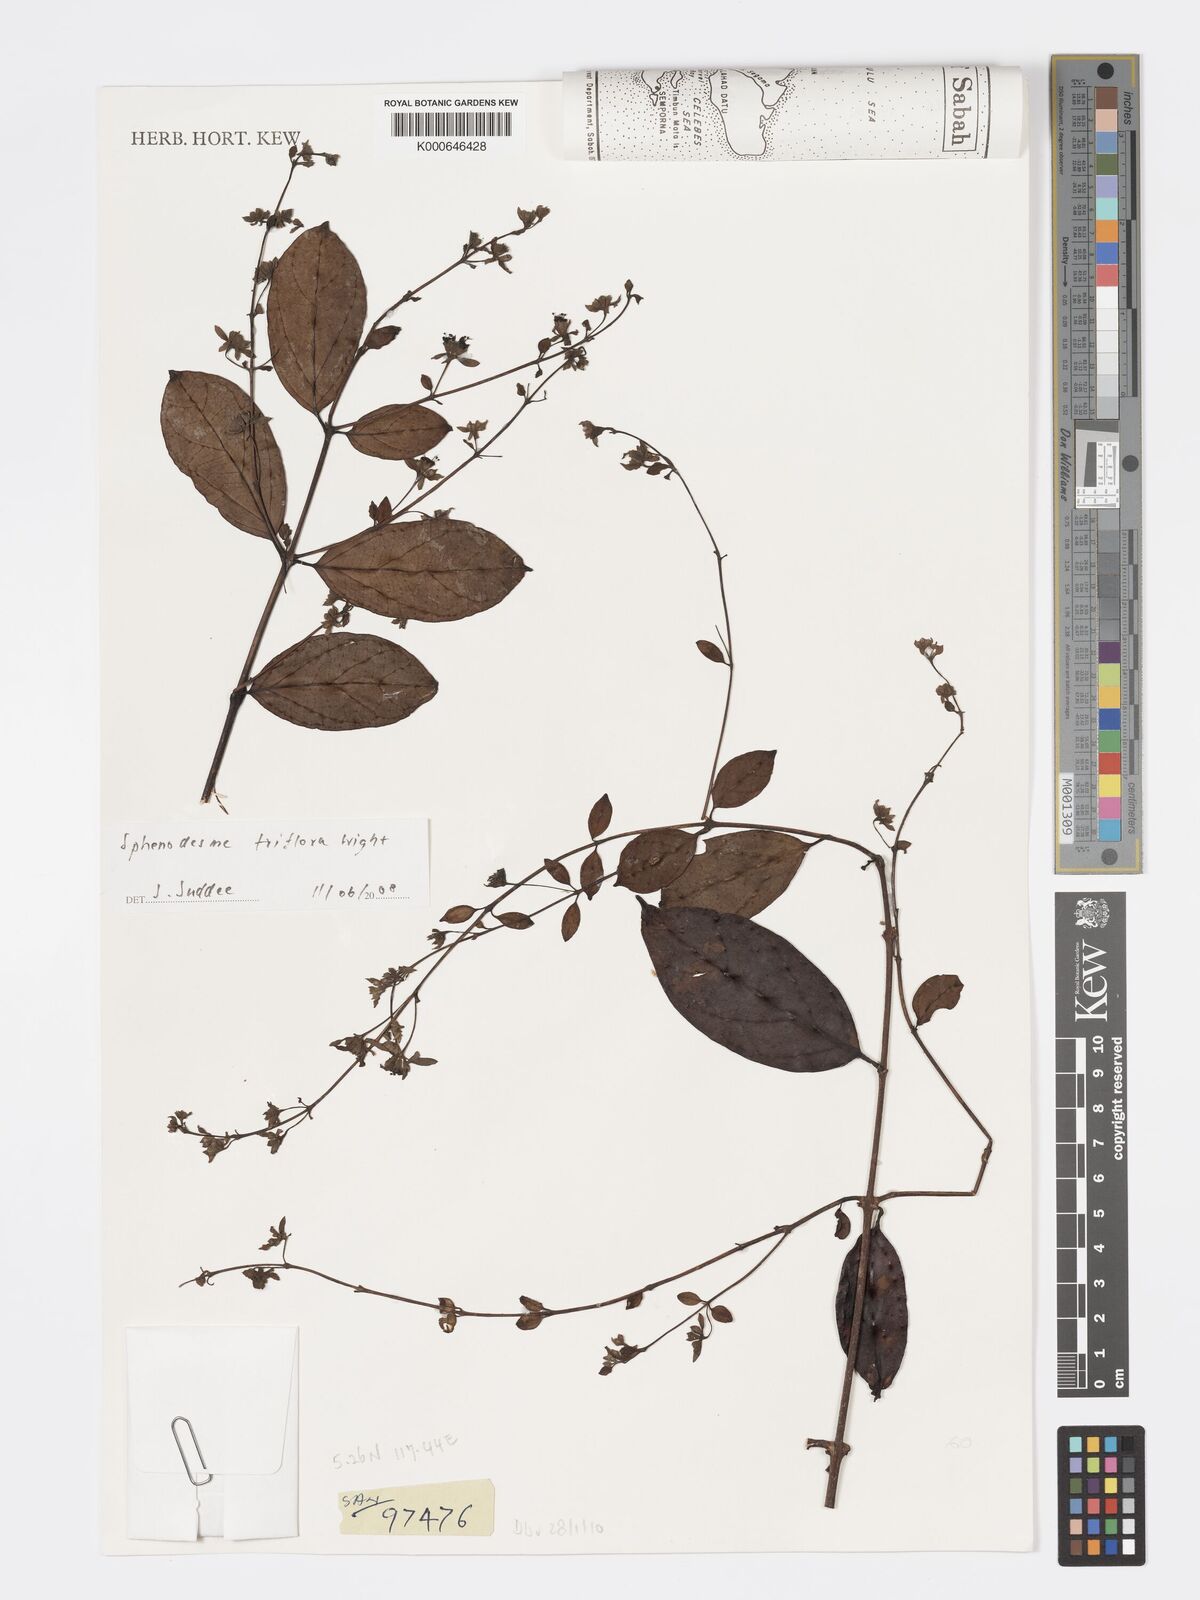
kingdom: Plantae
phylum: Tracheophyta
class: Magnoliopsida
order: Lamiales
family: Lamiaceae
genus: Sphenodesme
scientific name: Sphenodesme triflora
